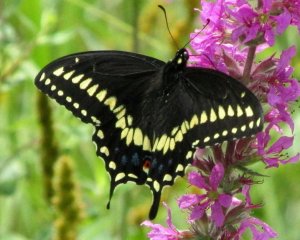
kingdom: Animalia
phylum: Arthropoda
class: Insecta
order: Lepidoptera
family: Papilionidae
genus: Papilio
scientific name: Papilio polyxenes
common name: Black Swallowtail
